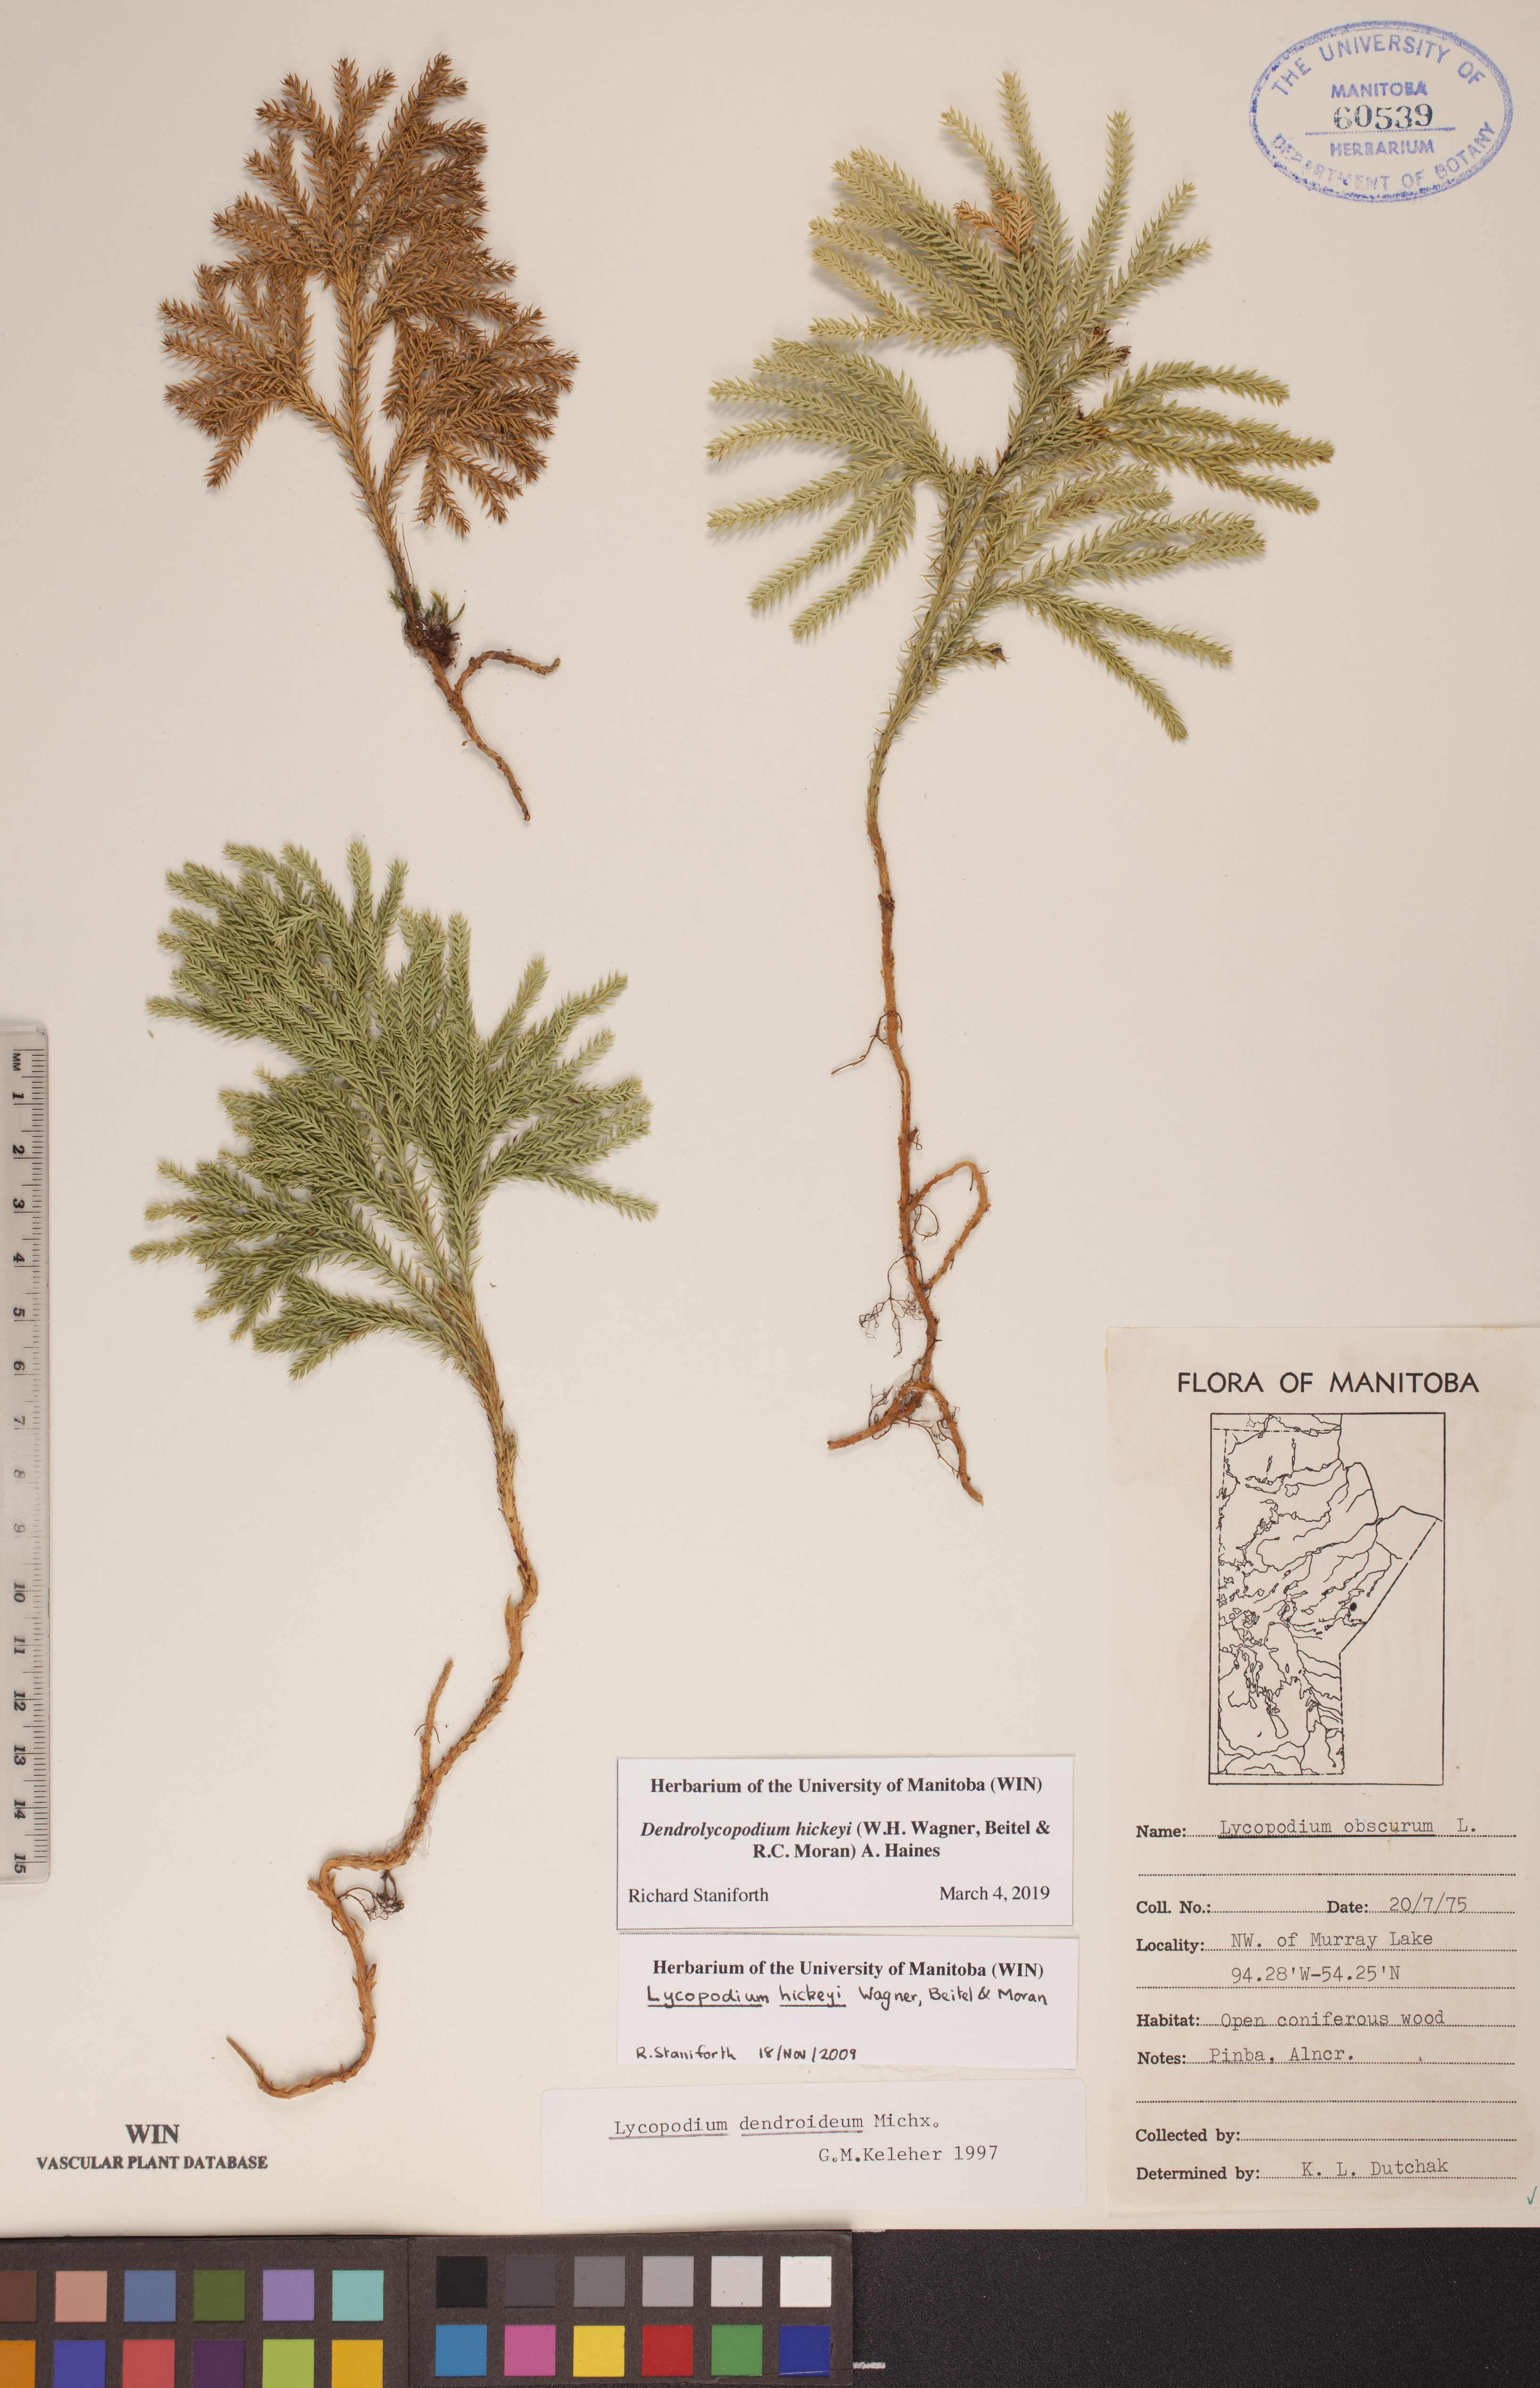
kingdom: Plantae
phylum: Tracheophyta
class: Lycopodiopsida
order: Lycopodiales
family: Lycopodiaceae
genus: Dendrolycopodium
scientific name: Dendrolycopodium hickeyi
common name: Hickey's clubmoss
